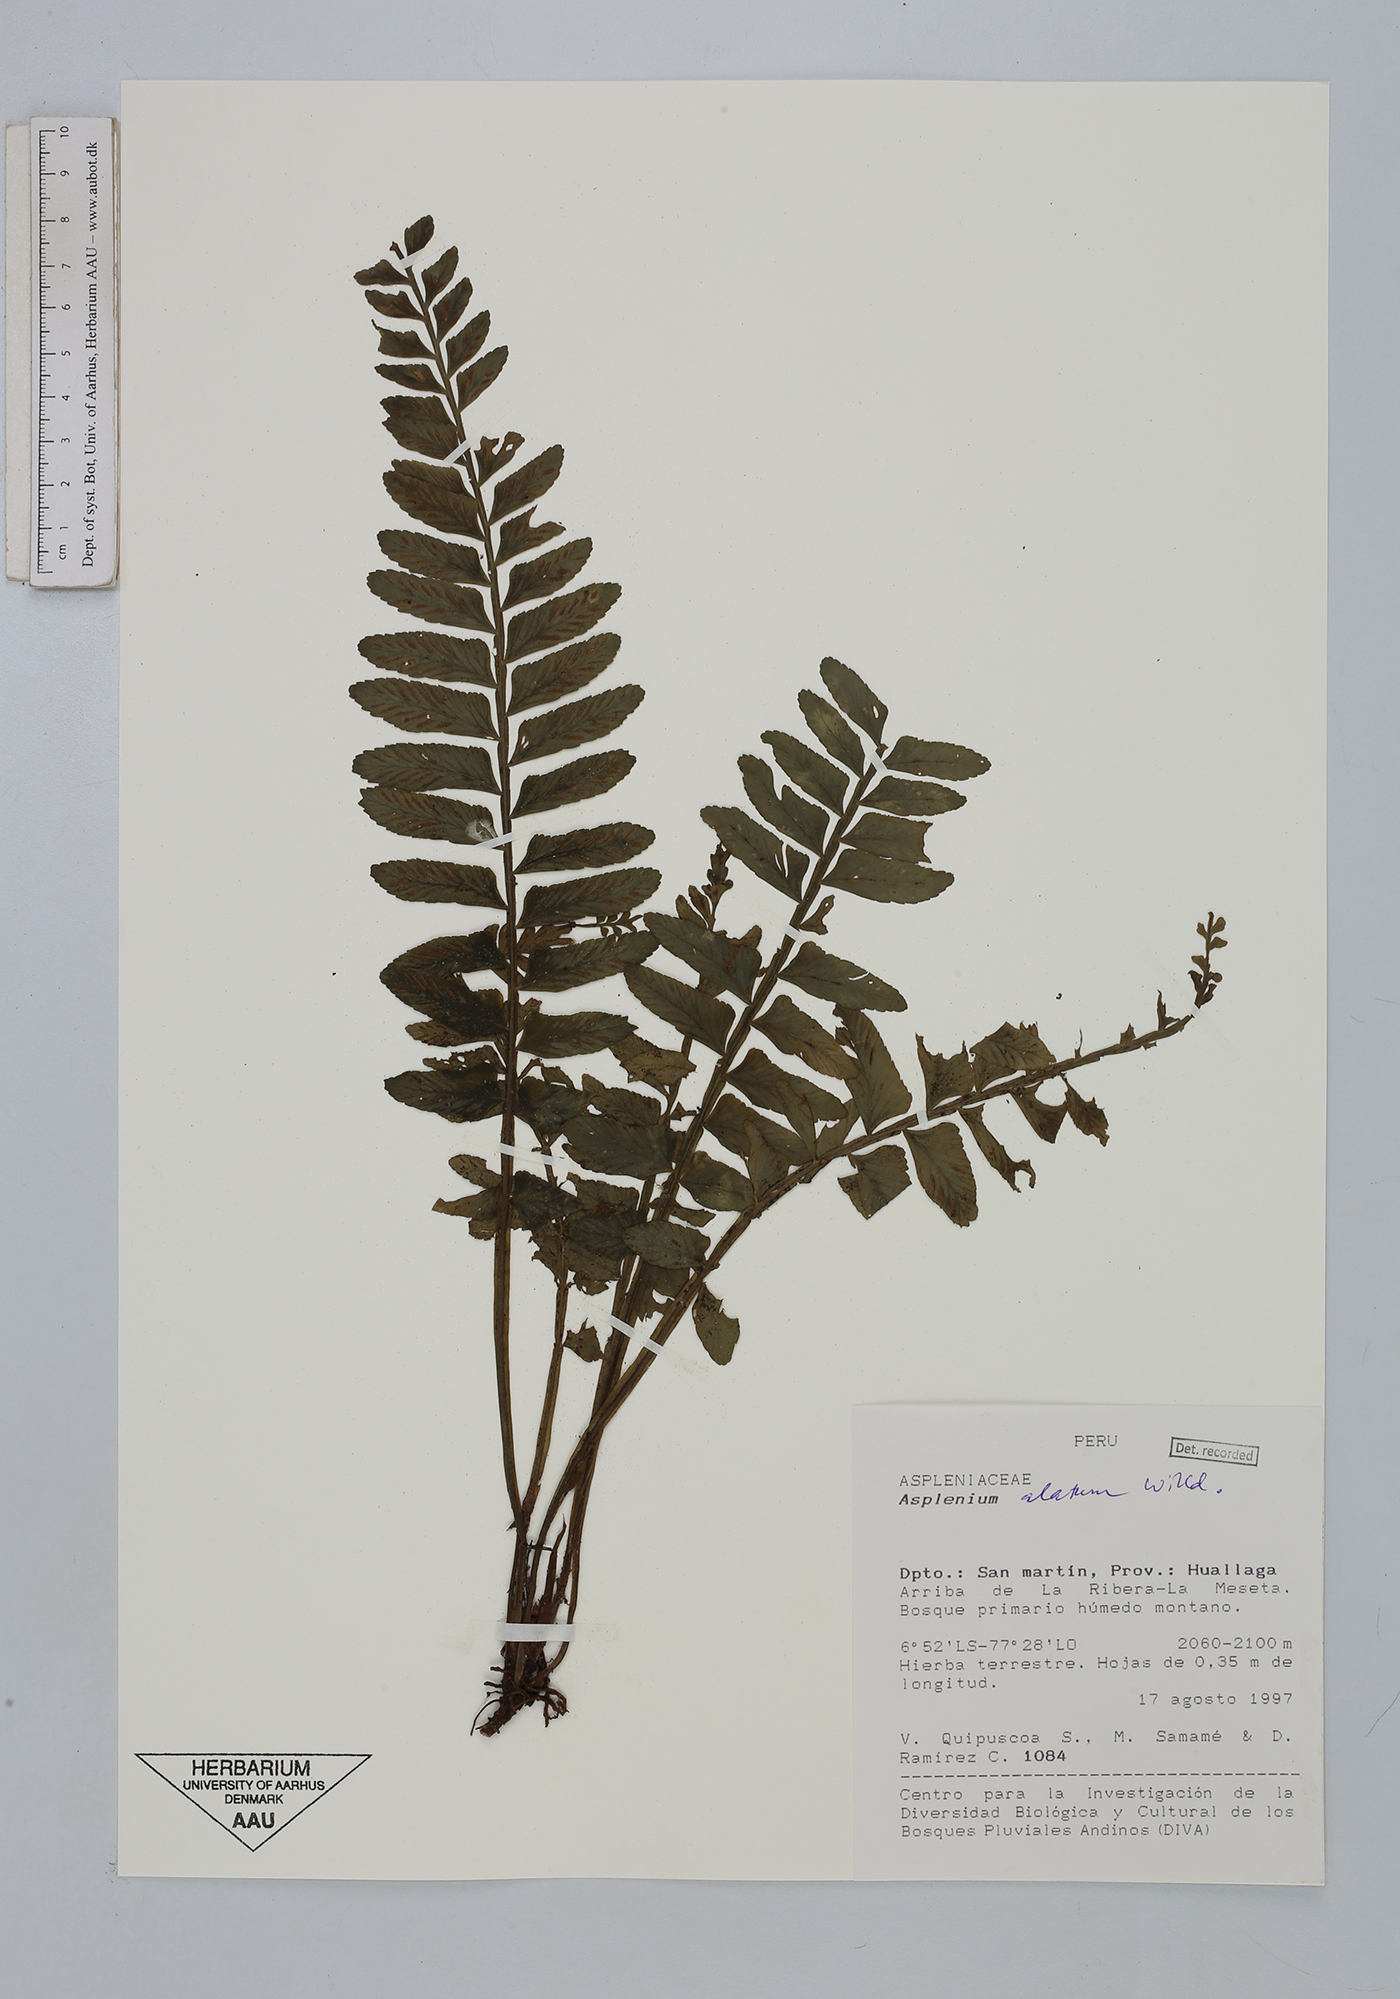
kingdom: Plantae
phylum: Tracheophyta
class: Polypodiopsida
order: Polypodiales
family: Aspleniaceae
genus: Asplenium
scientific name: Asplenium alatum
